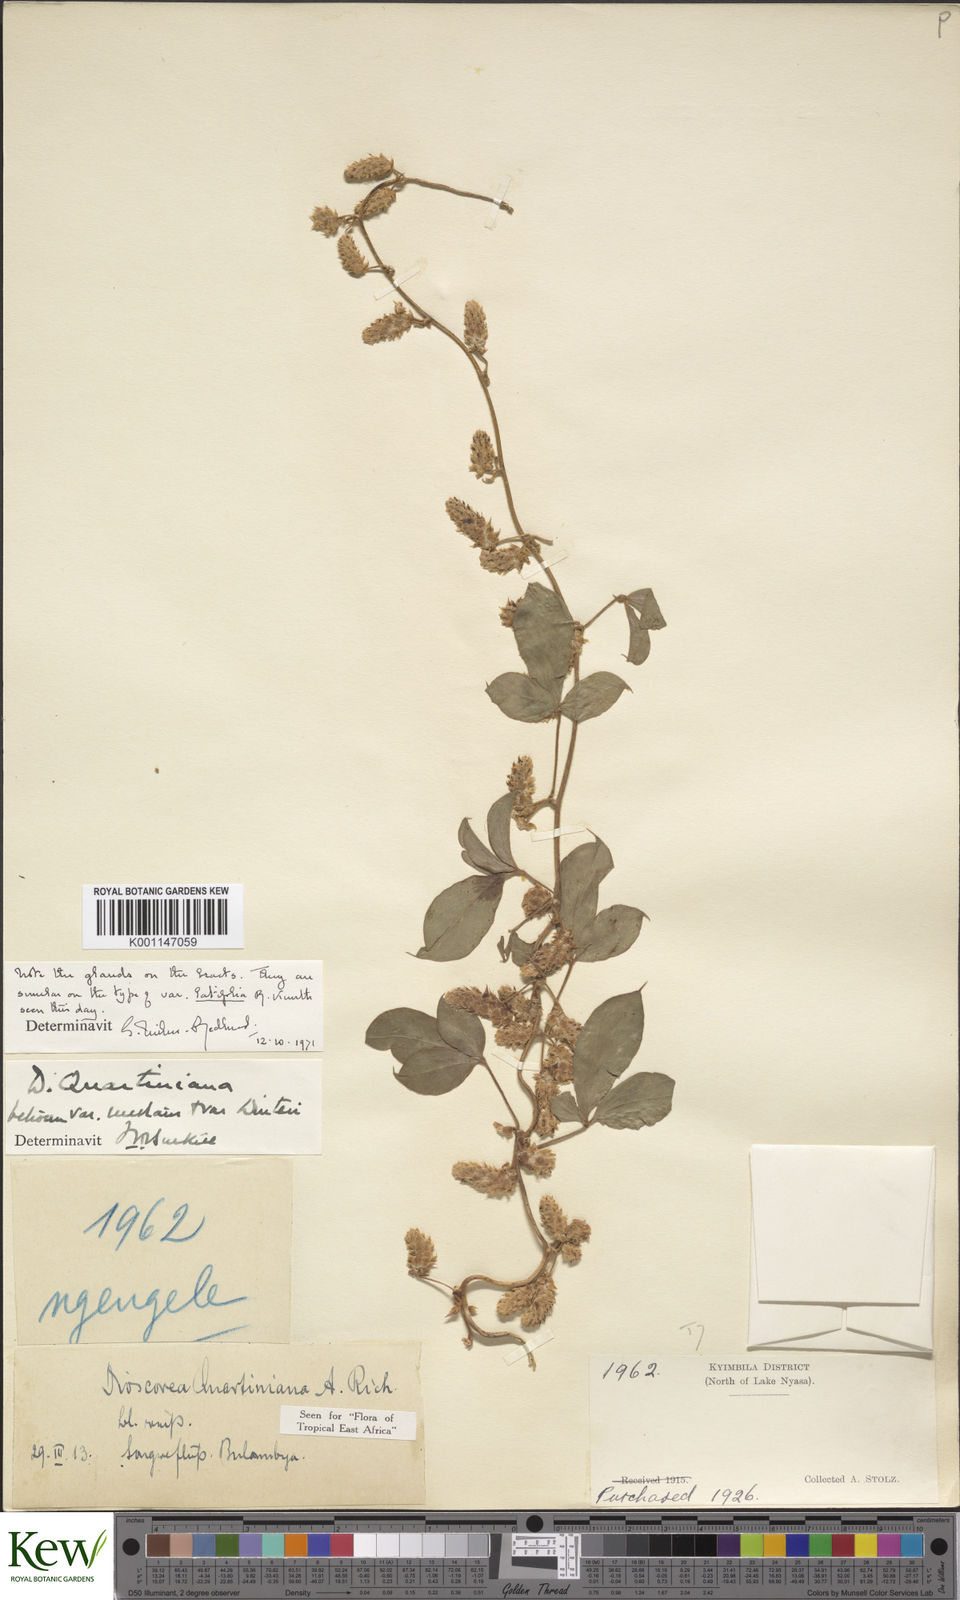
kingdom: Plantae
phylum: Tracheophyta
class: Liliopsida
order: Dioscoreales
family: Dioscoreaceae
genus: Dioscorea
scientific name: Dioscorea quartiniana
